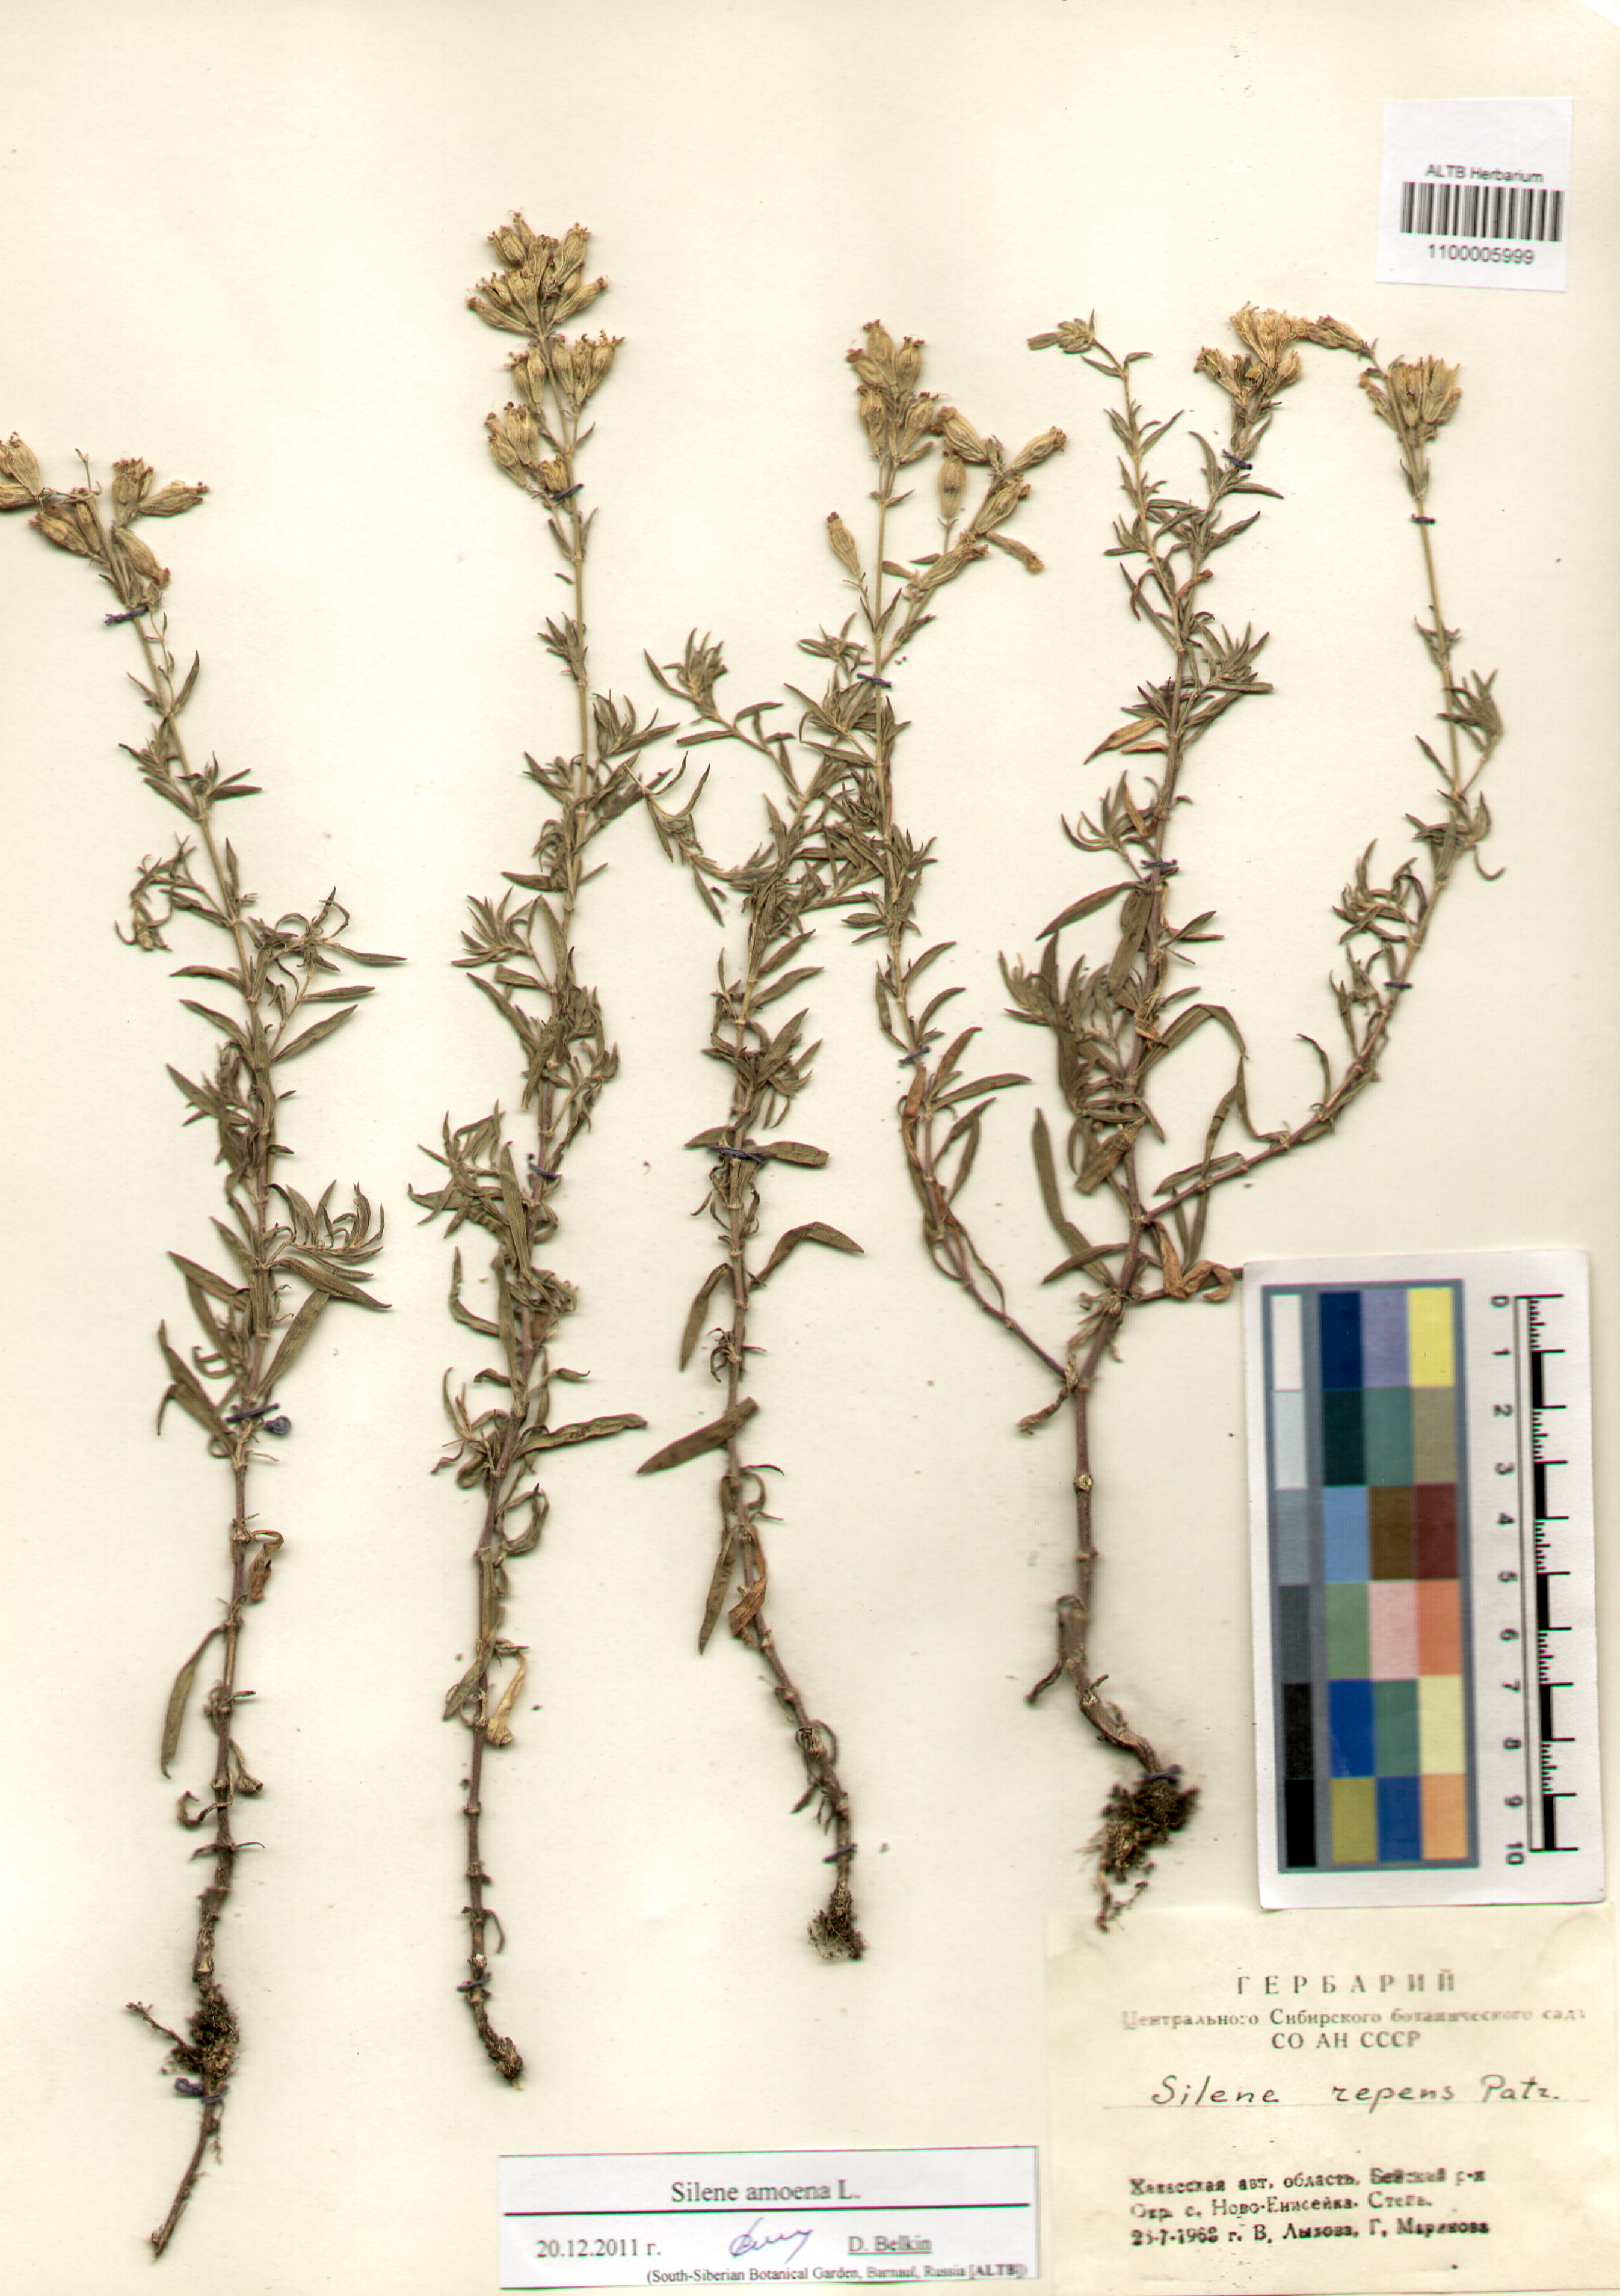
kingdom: Plantae
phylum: Tracheophyta
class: Magnoliopsida
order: Caryophyllales
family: Caryophyllaceae
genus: Silene
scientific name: Silene amoena
